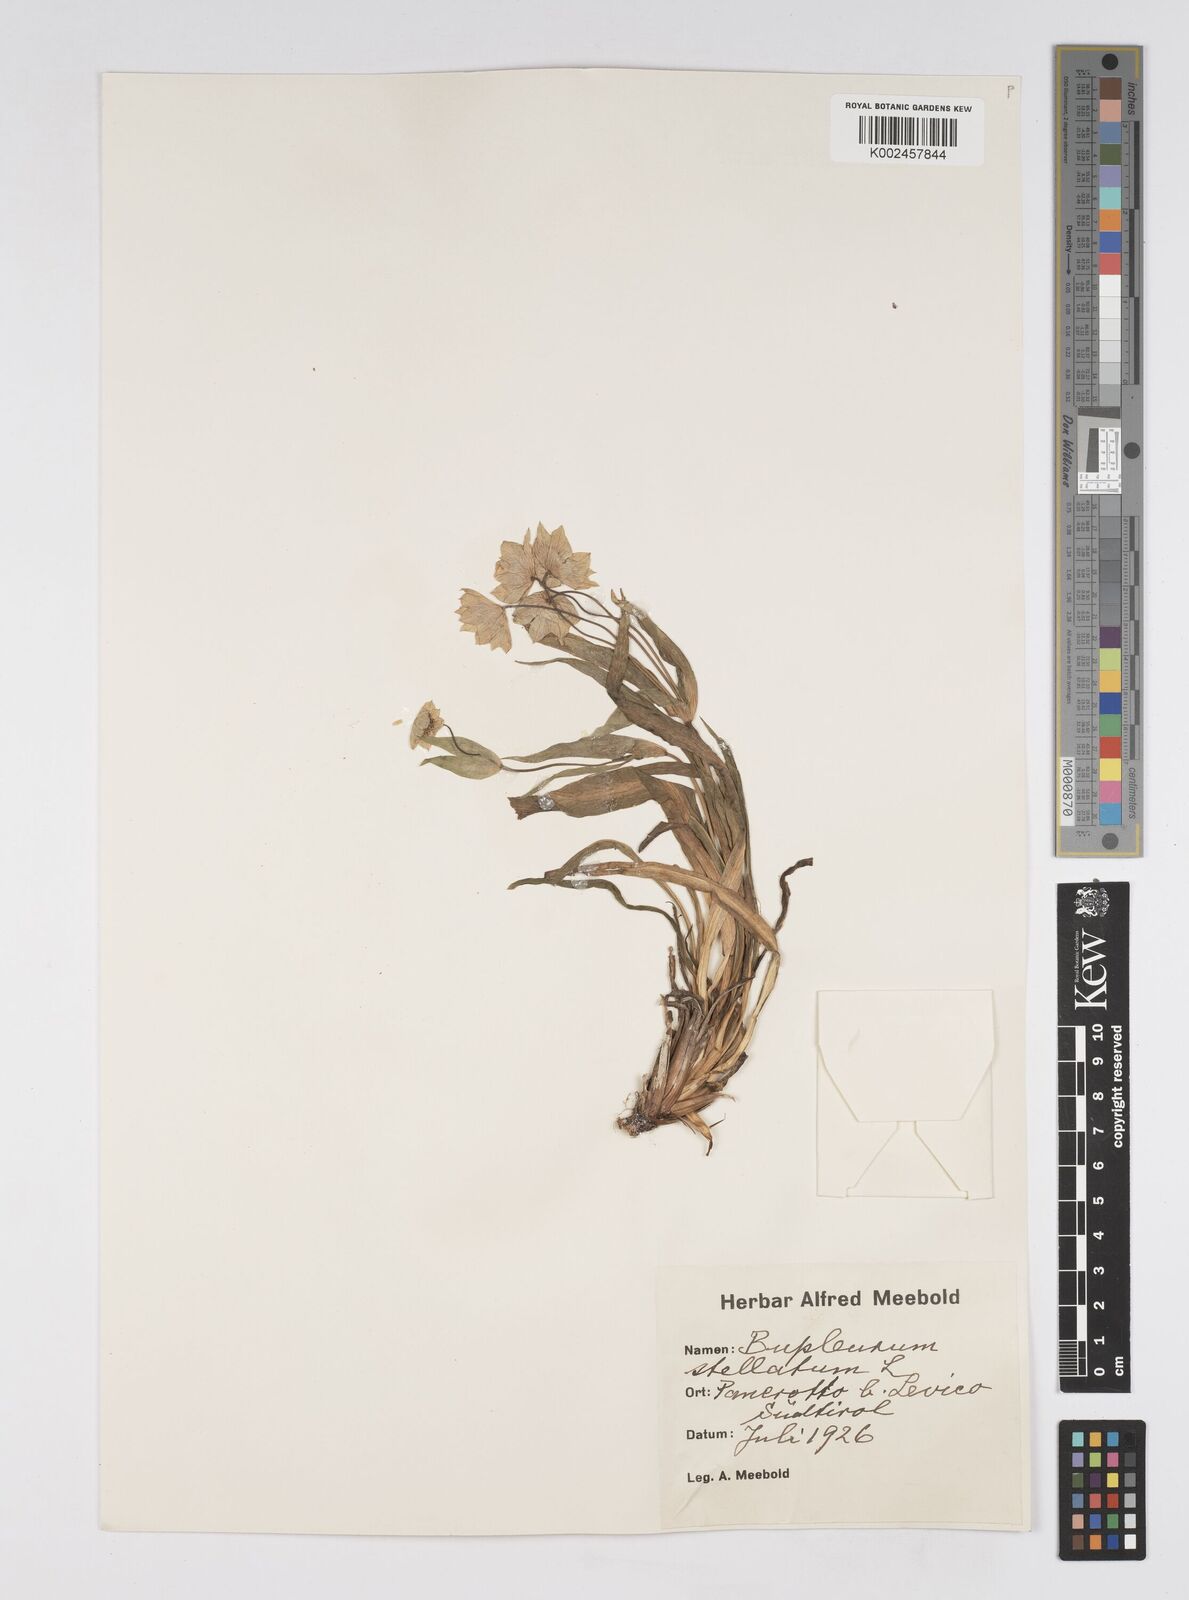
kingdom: Plantae
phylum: Tracheophyta
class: Magnoliopsida
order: Apiales
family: Apiaceae
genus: Bupleurum
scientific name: Bupleurum stellatum
